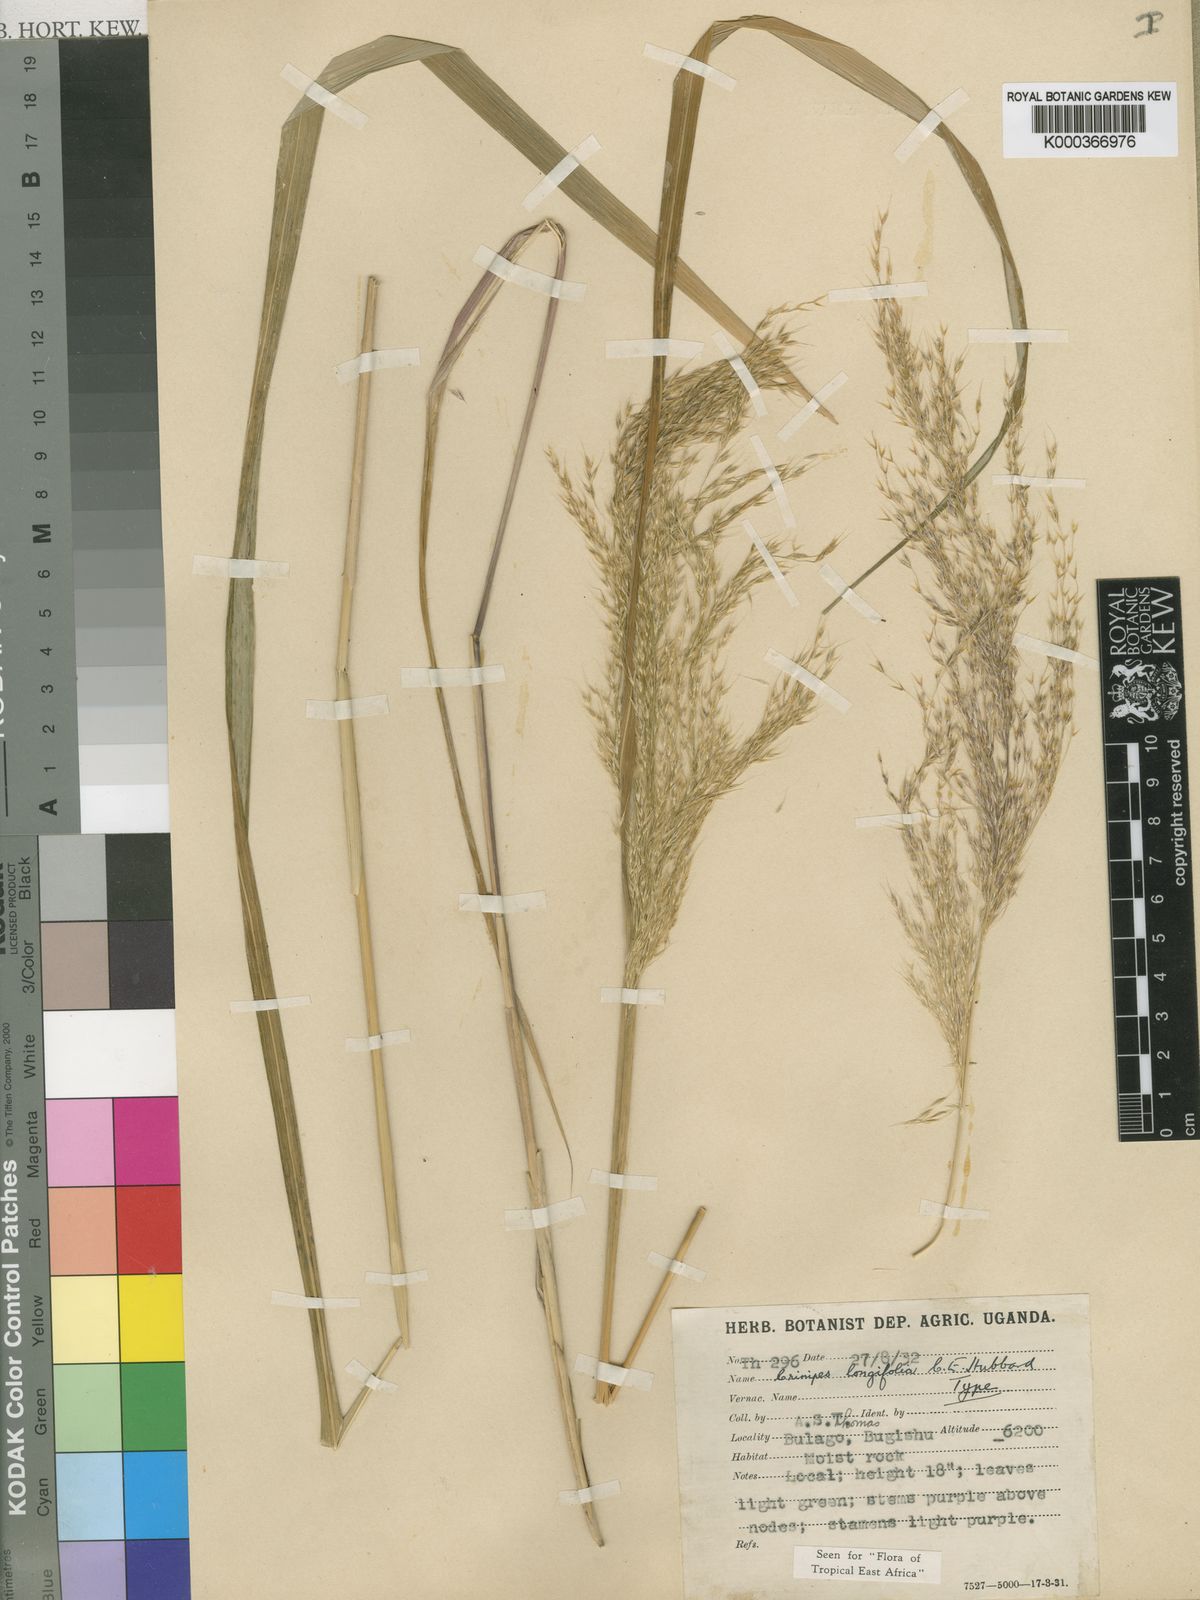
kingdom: Plantae
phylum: Tracheophyta
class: Liliopsida
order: Poales
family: Poaceae
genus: Crinipes
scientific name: Crinipes longifolius
